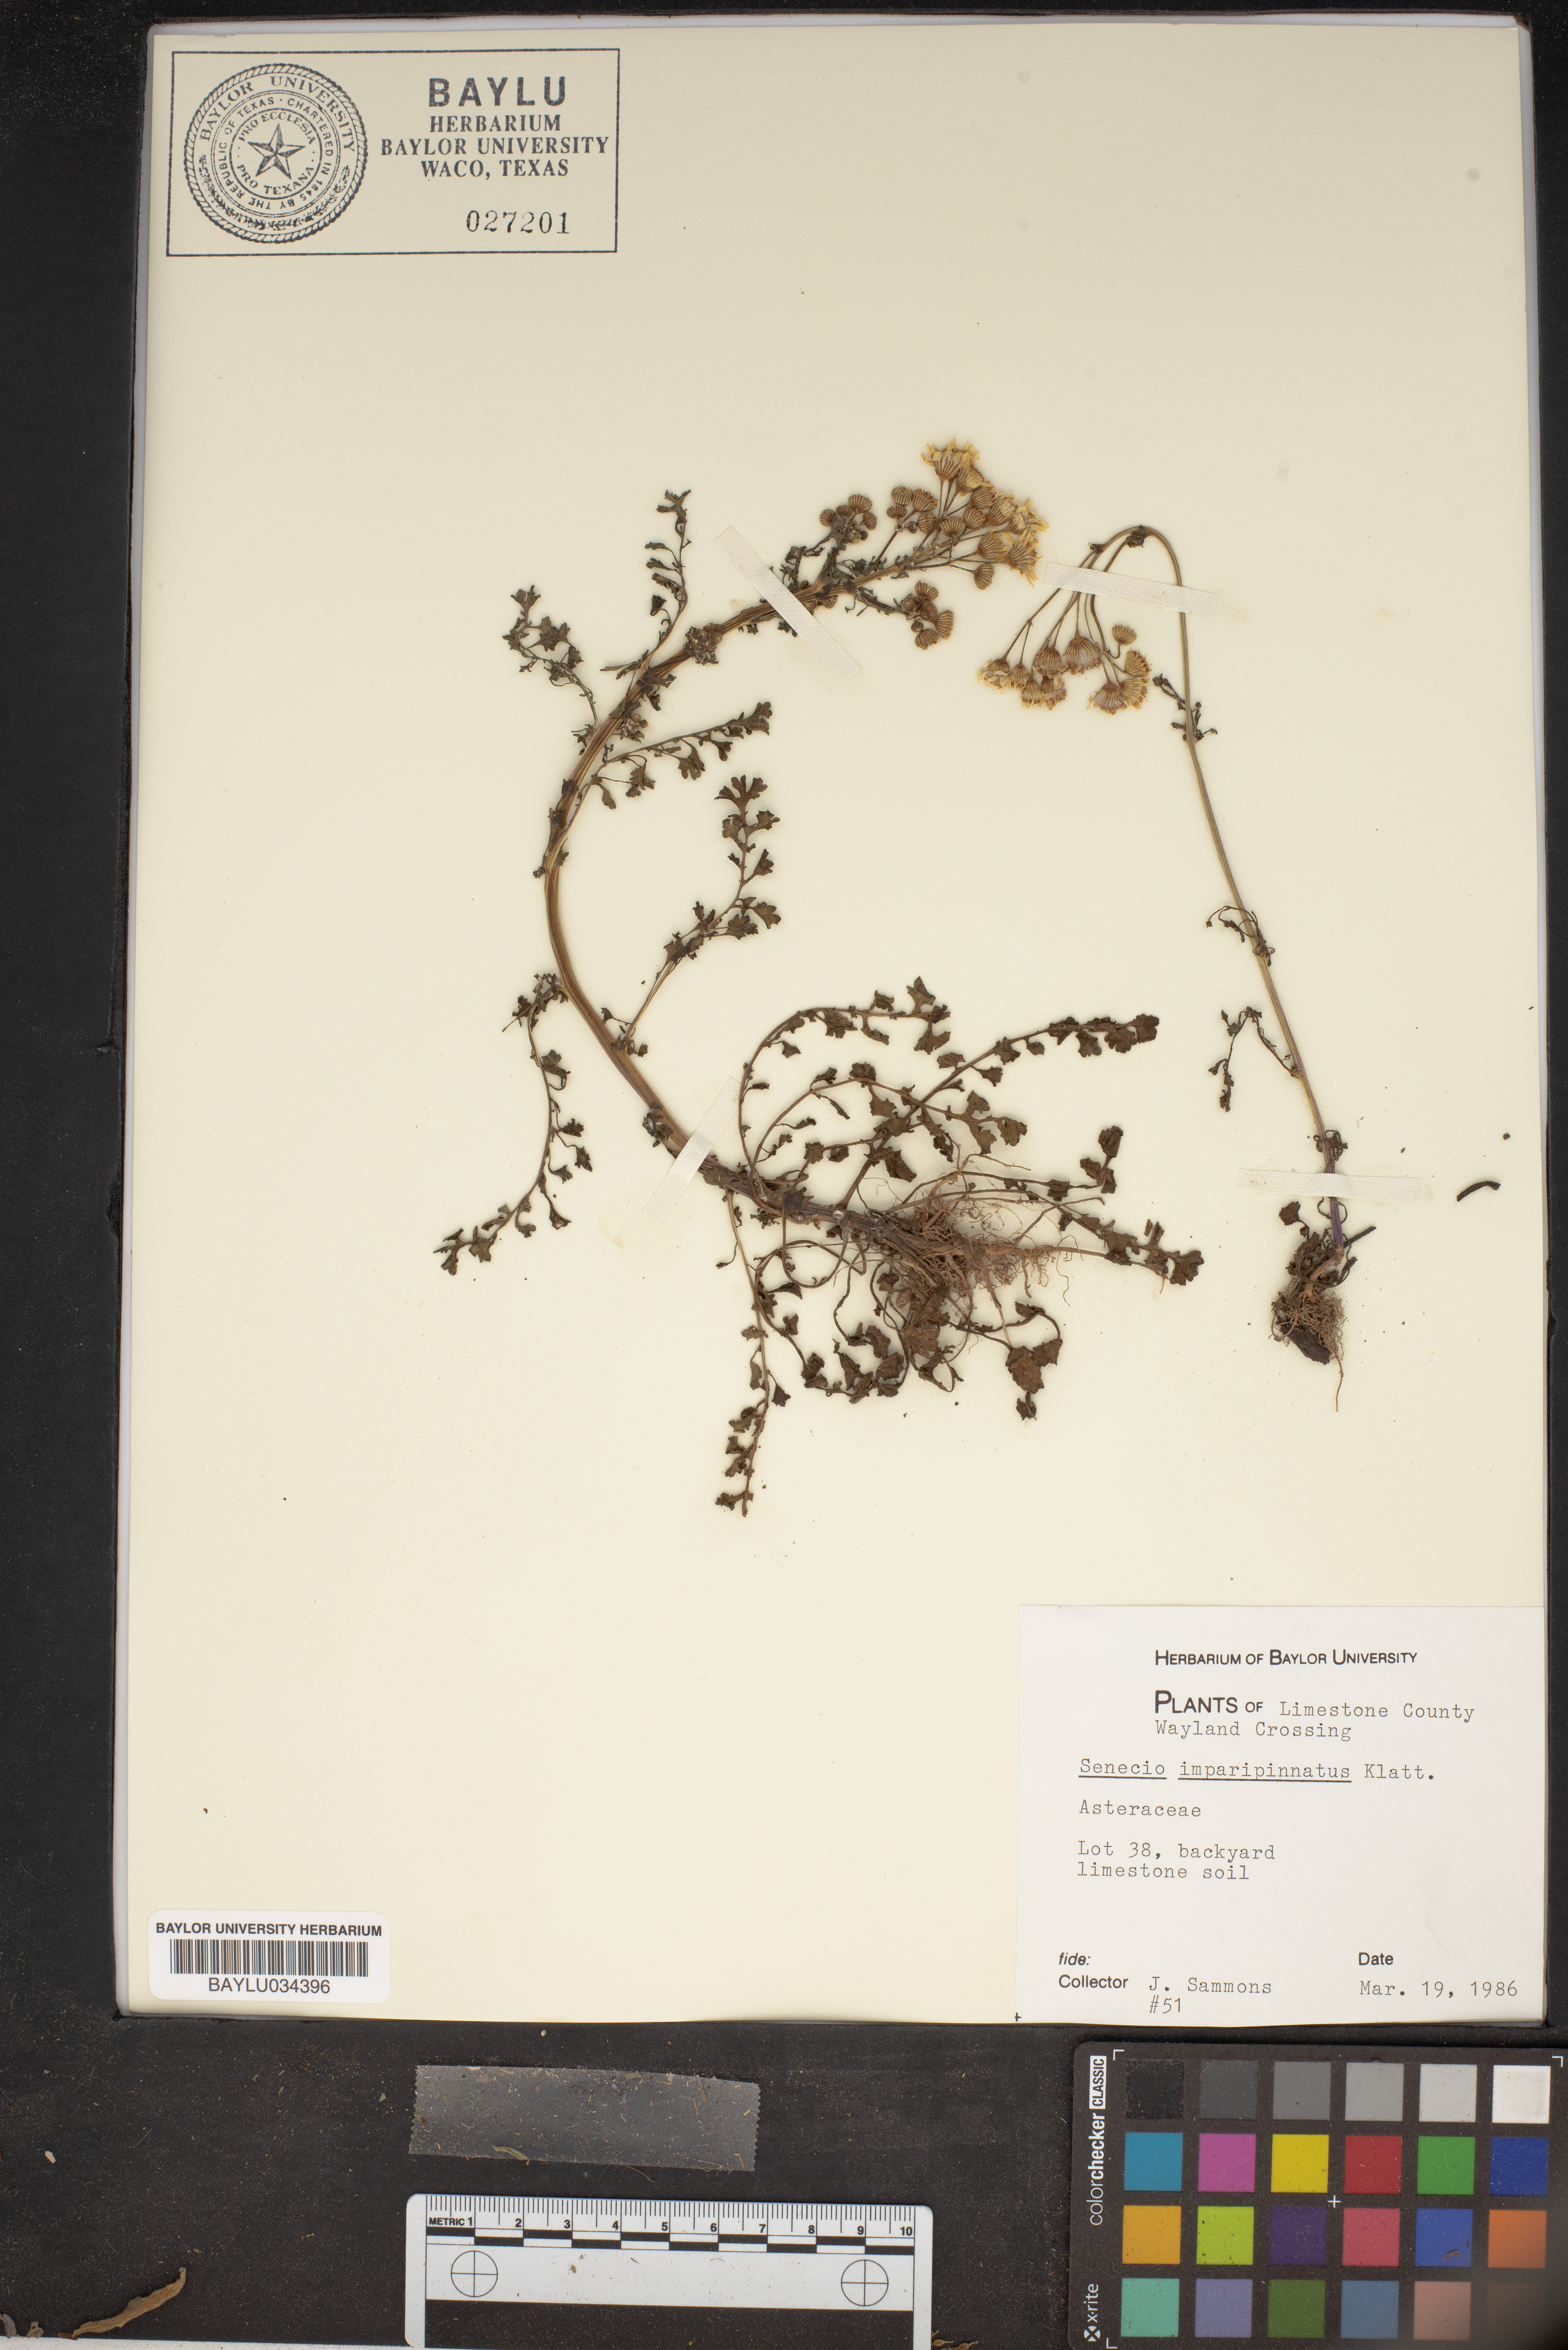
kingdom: Plantae
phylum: Tracheophyta
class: Magnoliopsida
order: Asterales
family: Asteraceae
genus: Packera
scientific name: Packera tampicana
